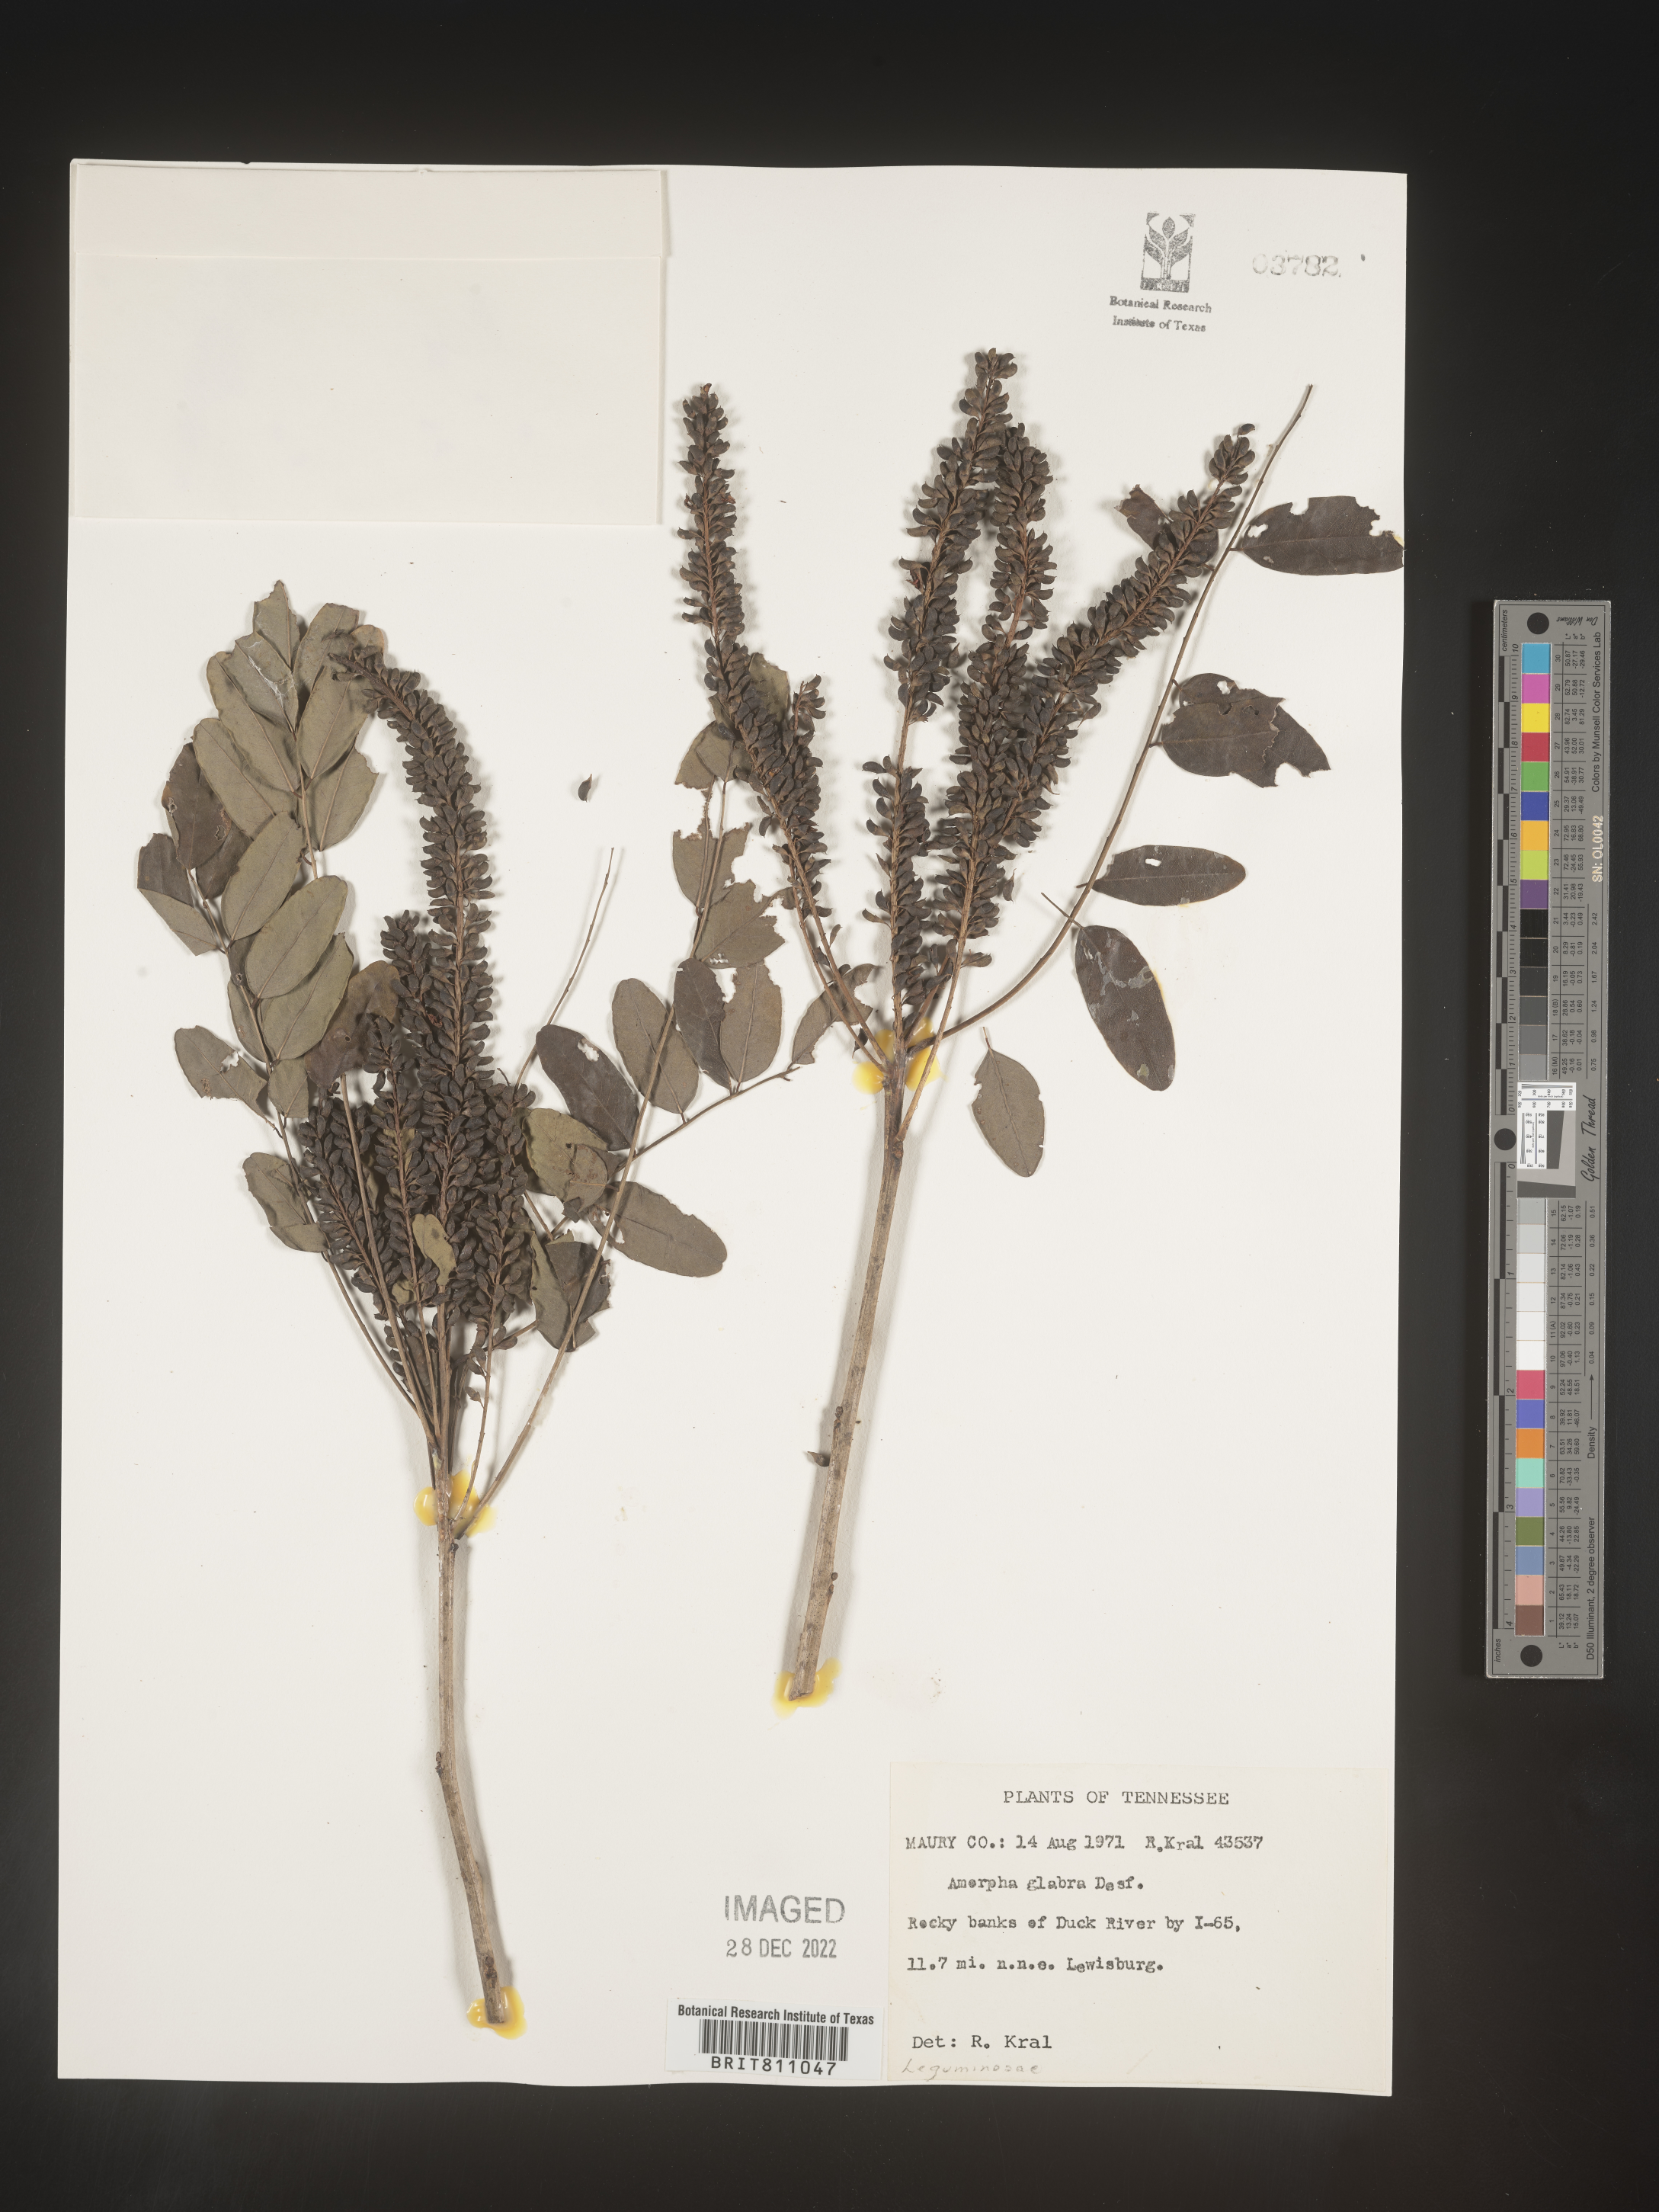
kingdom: Plantae
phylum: Tracheophyta
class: Magnoliopsida
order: Fabales
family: Fabaceae
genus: Amorpha
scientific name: Amorpha glabra
